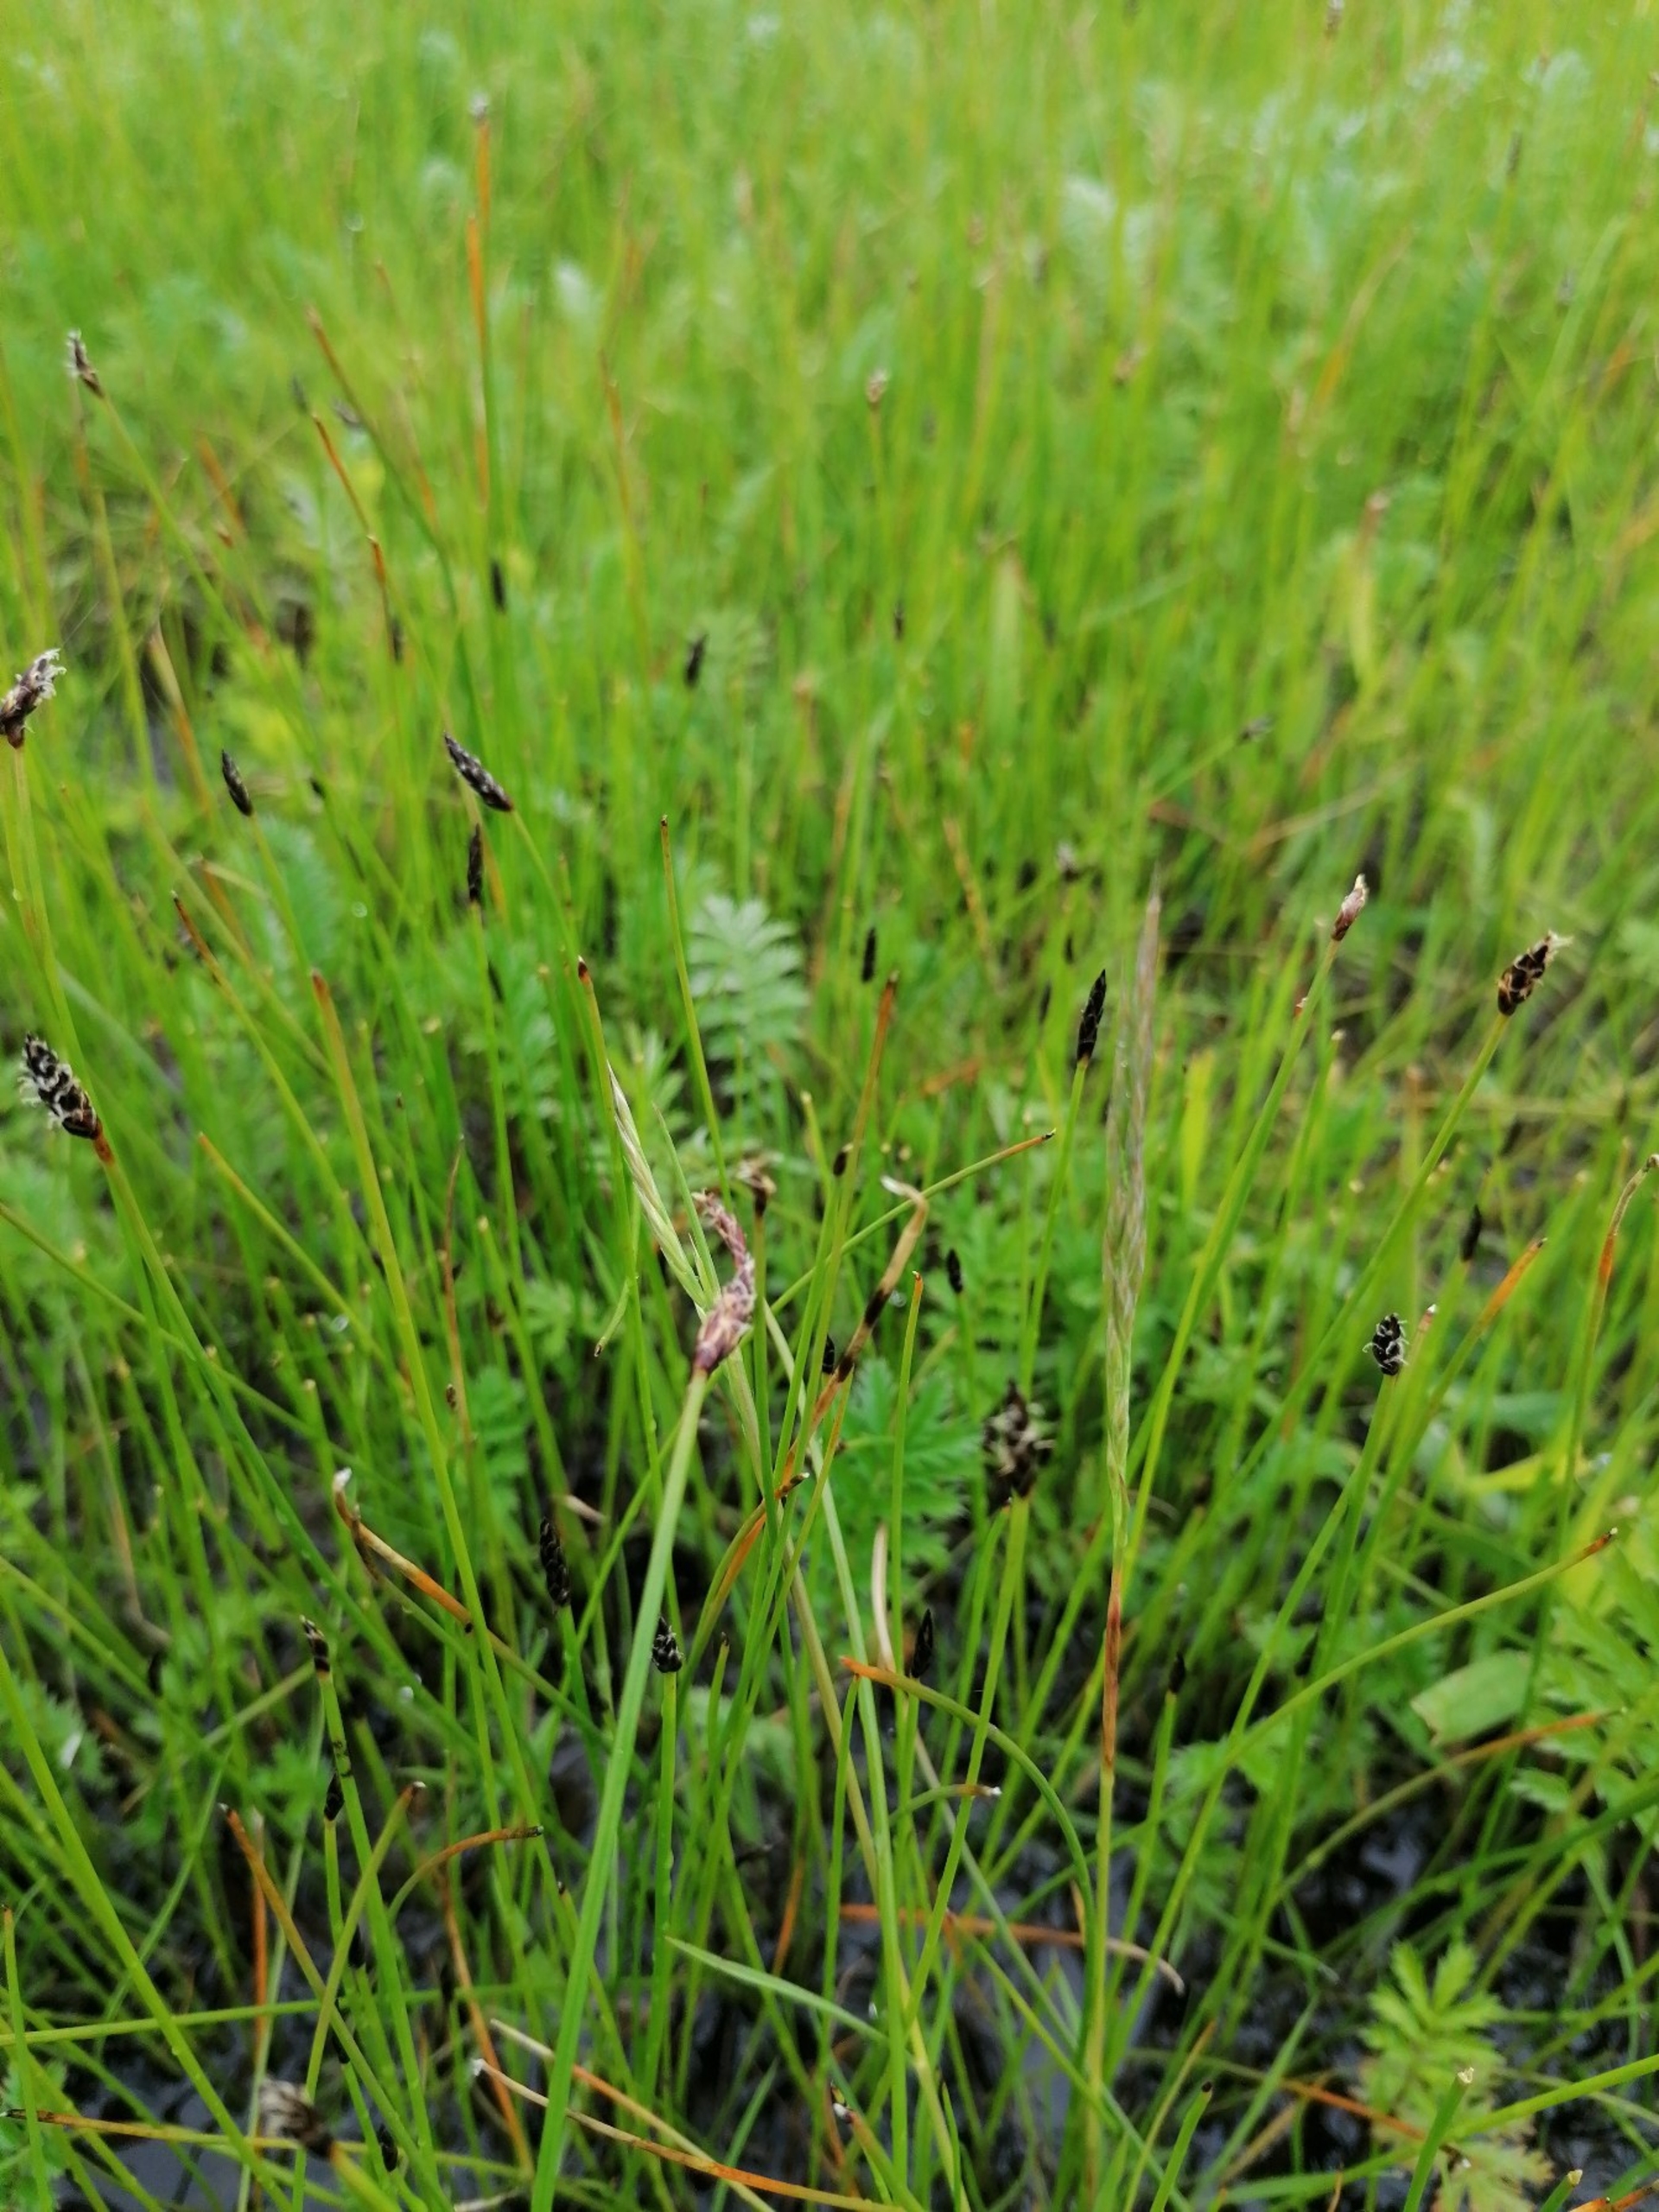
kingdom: Plantae
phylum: Tracheophyta
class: Liliopsida
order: Poales
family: Cyperaceae
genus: Eleocharis
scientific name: Eleocharis palustris
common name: Almindelig sumpstrå
